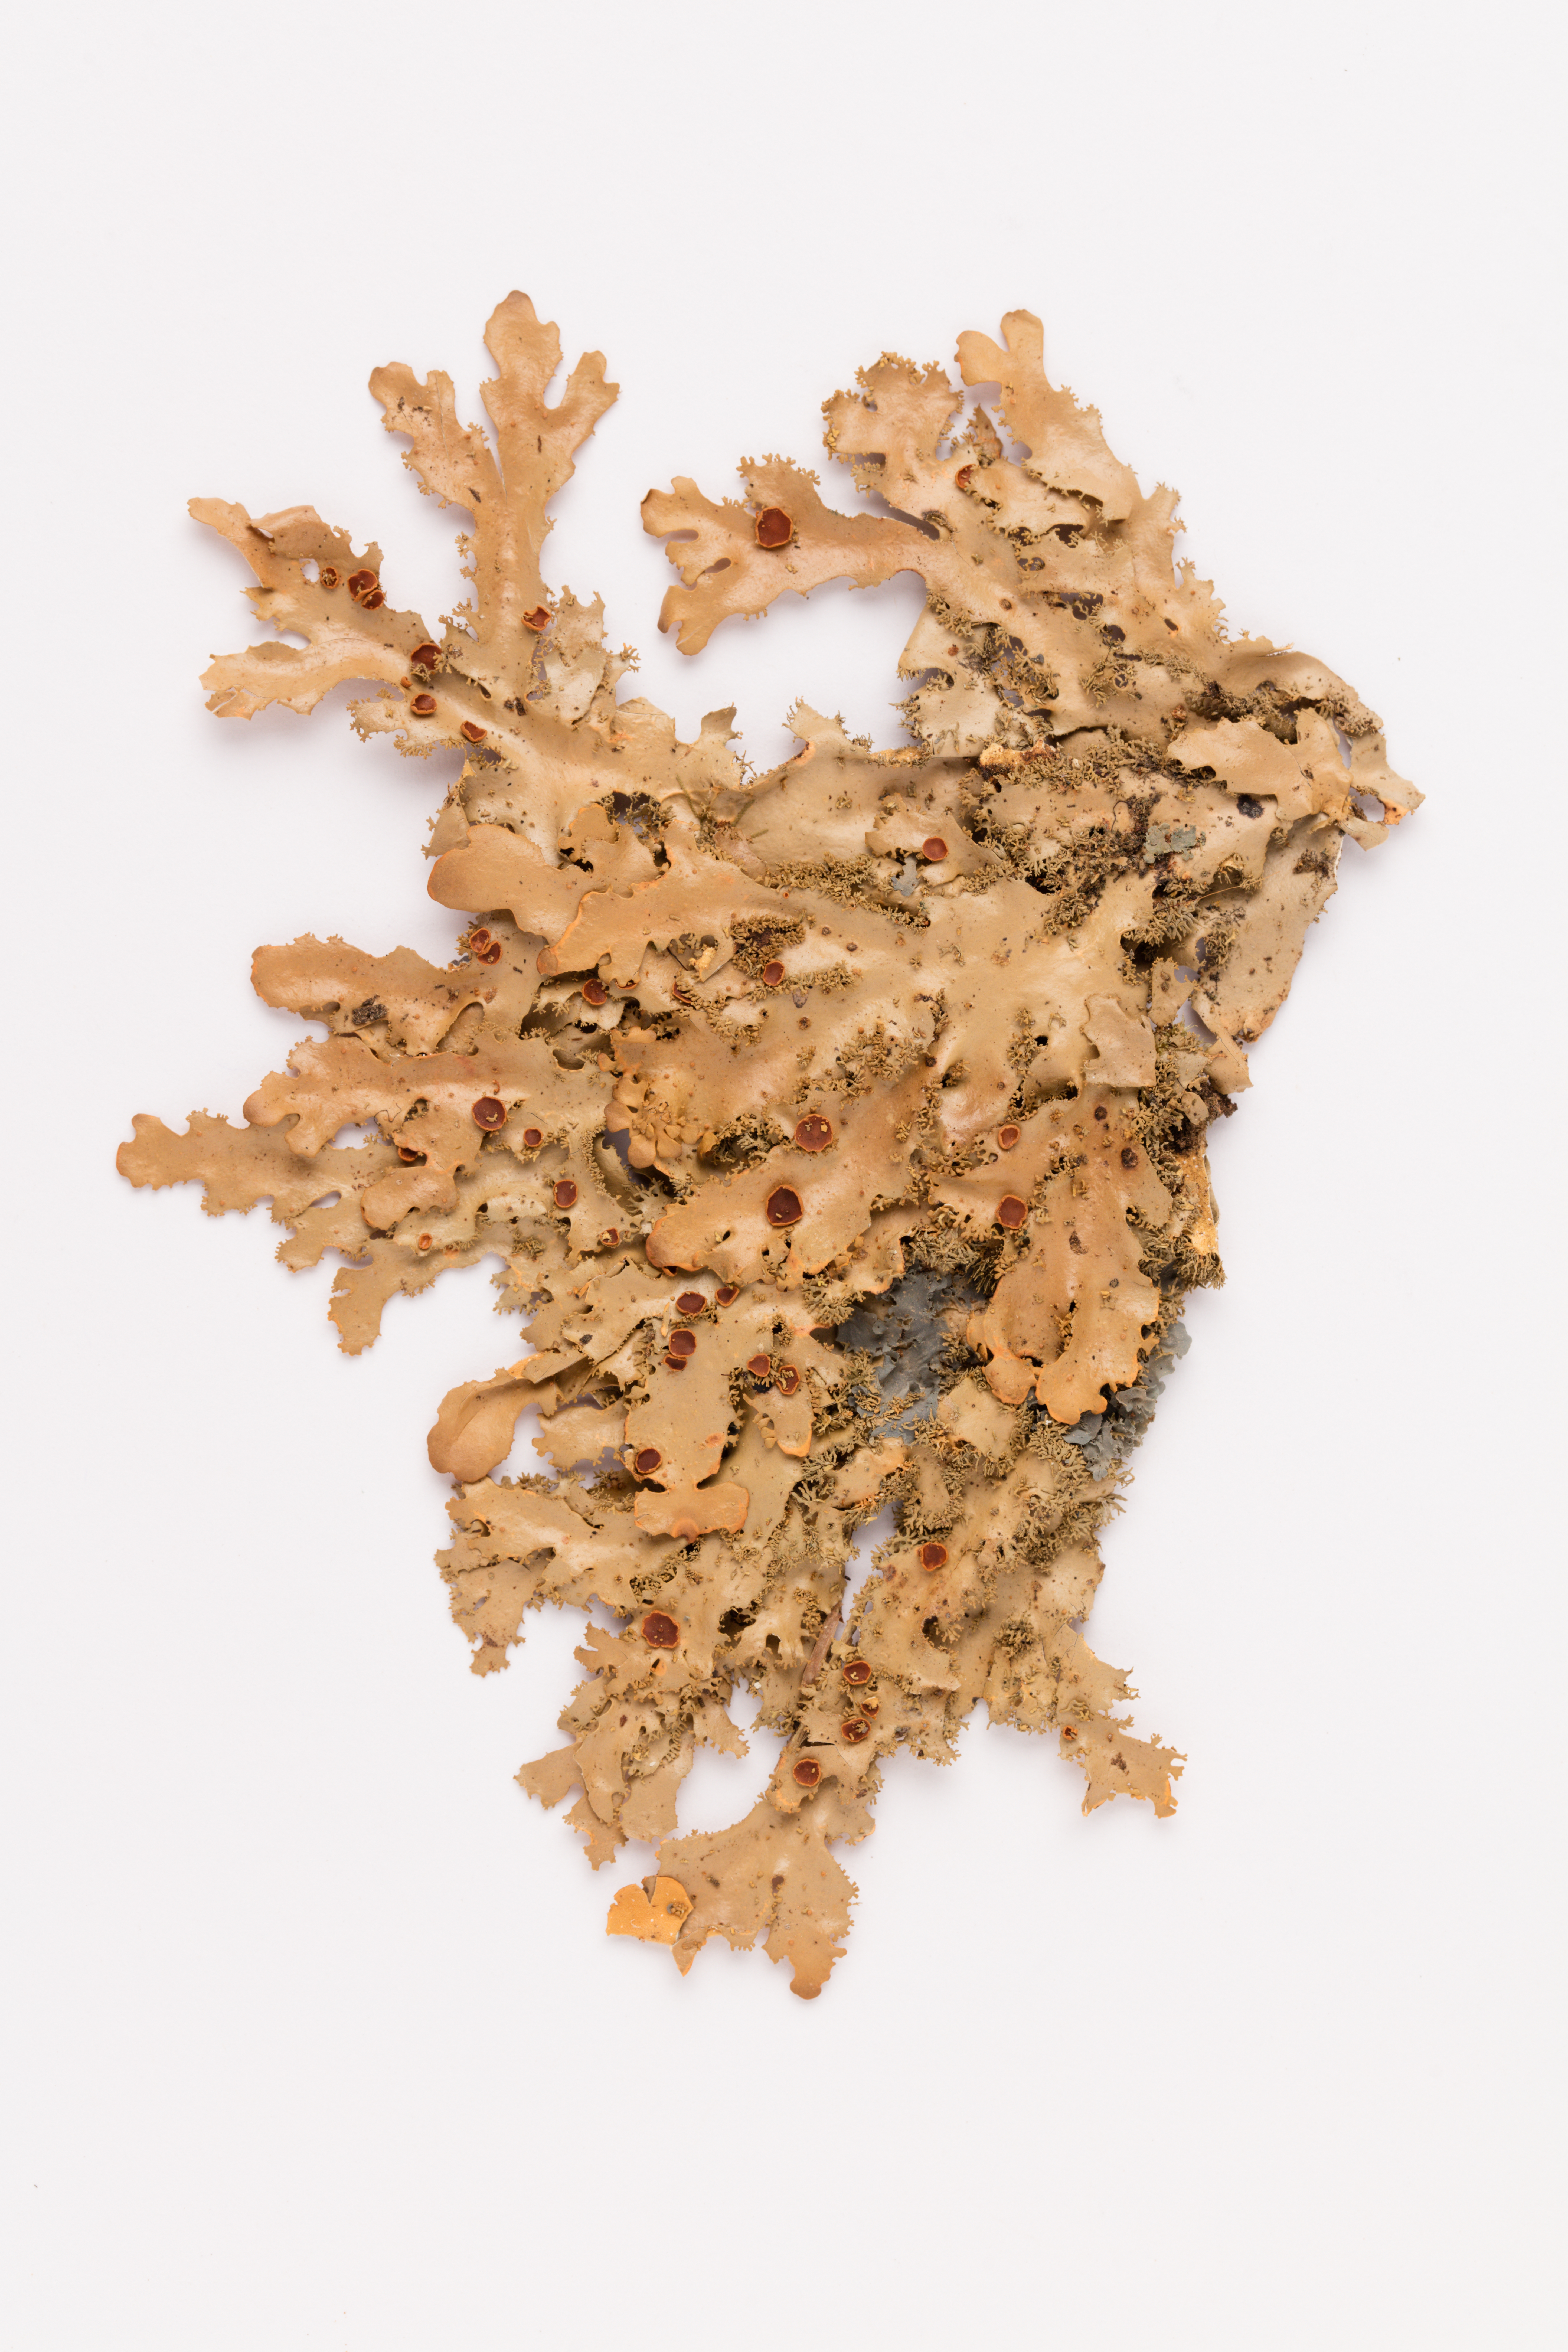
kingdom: Fungi
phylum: Ascomycota
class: Lecanoromycetes
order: Peltigerales
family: Lobariaceae
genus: Pseudocyphellaria
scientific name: Pseudocyphellaria dissimilis
